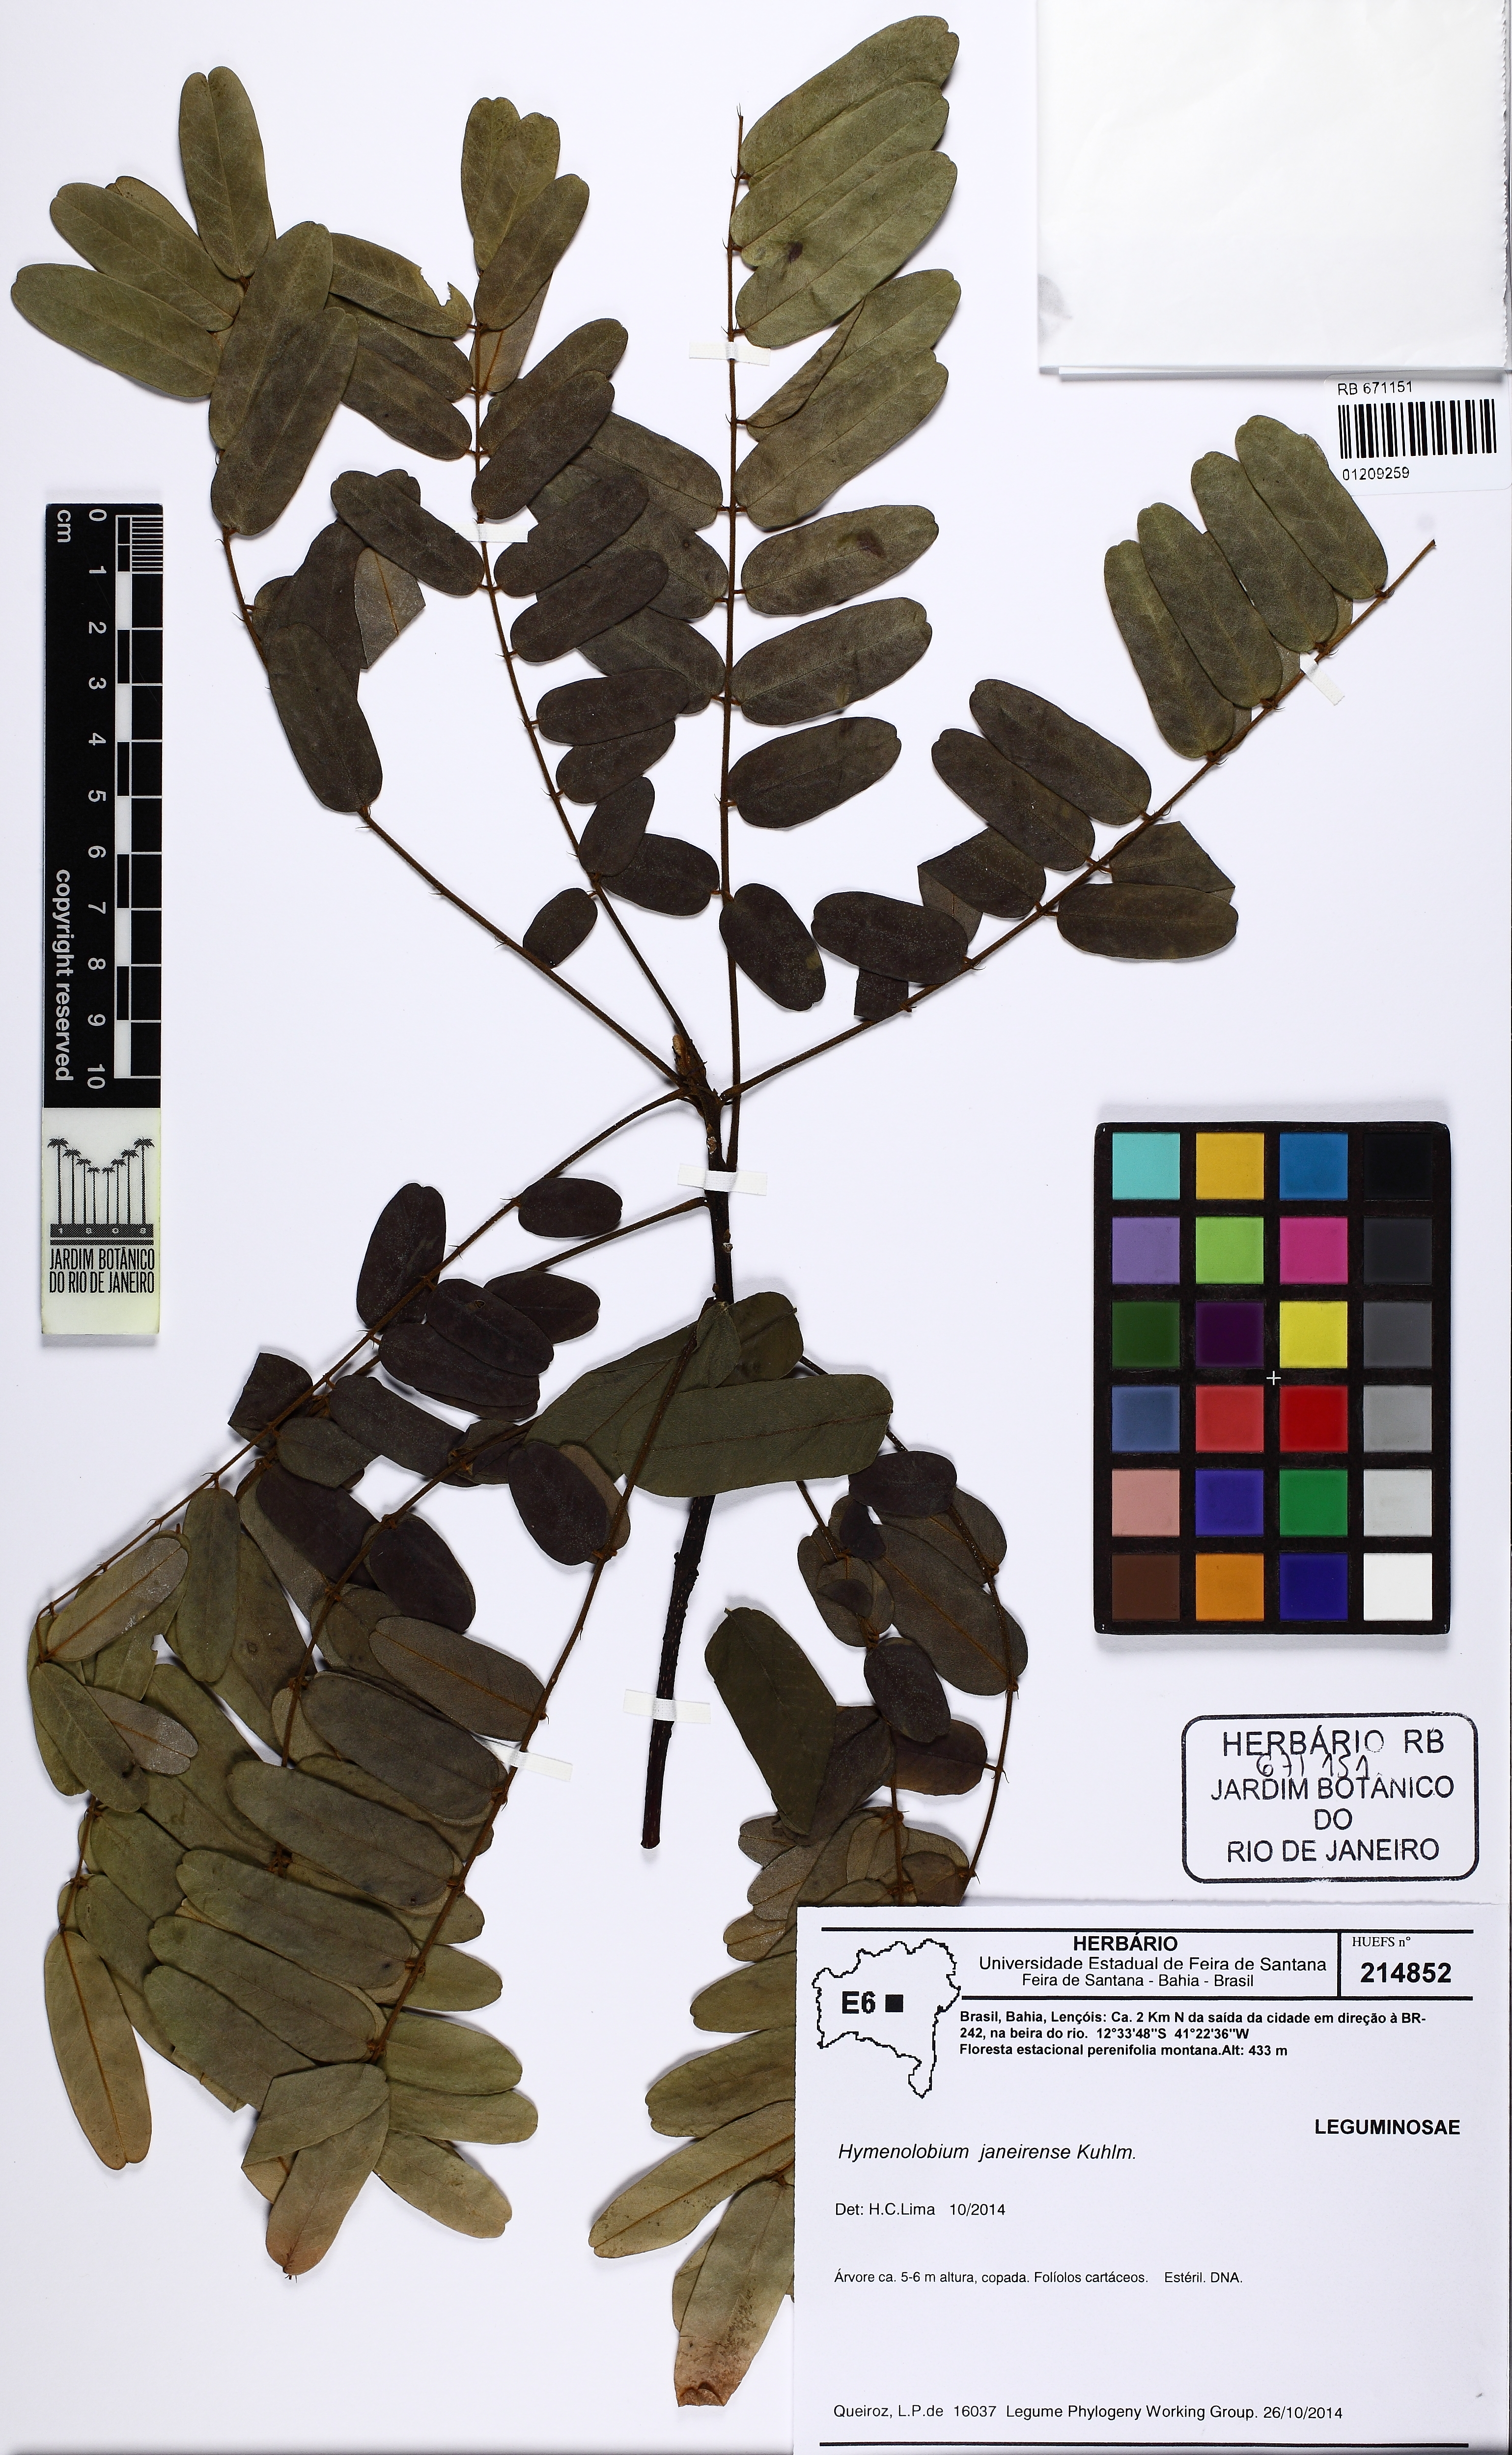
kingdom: Plantae
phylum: Tracheophyta
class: Magnoliopsida
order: Fabales
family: Fabaceae
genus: Hymenolobium
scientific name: Hymenolobium janeirense
